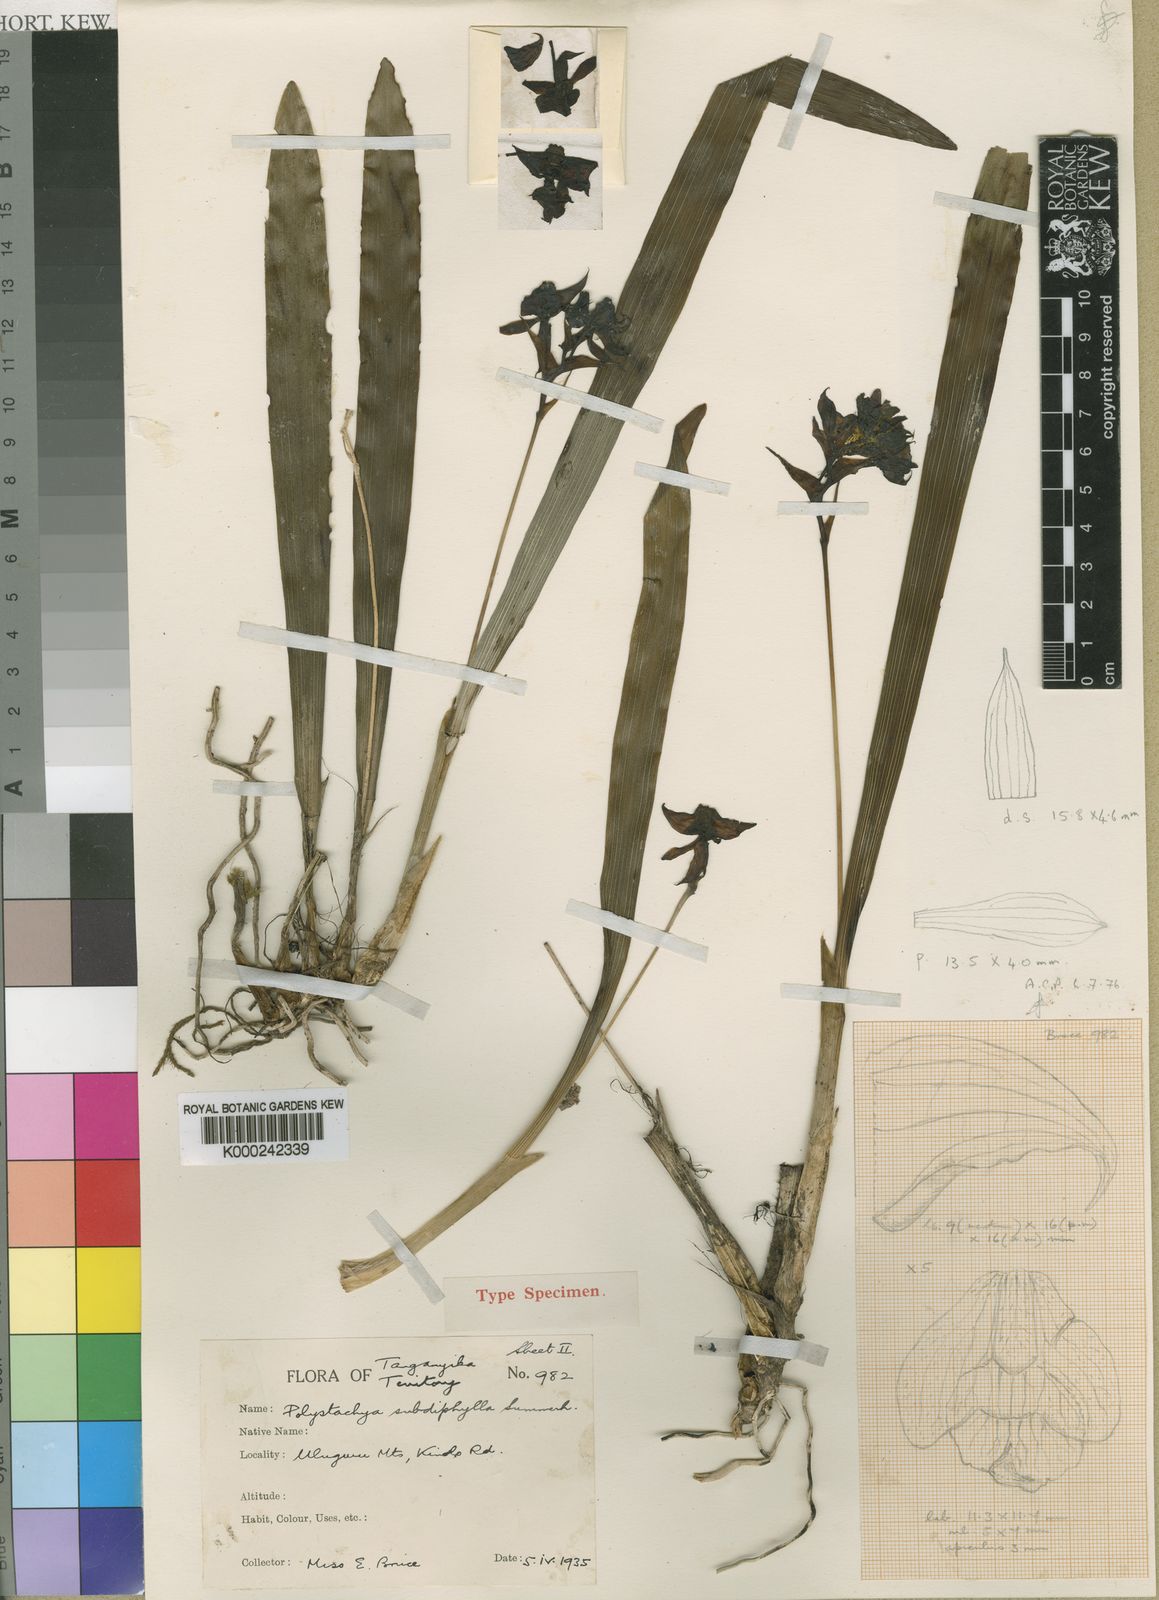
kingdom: Plantae
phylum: Tracheophyta
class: Liliopsida
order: Asparagales
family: Orchidaceae
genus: Polystachya
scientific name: Polystachya subdiphylla
